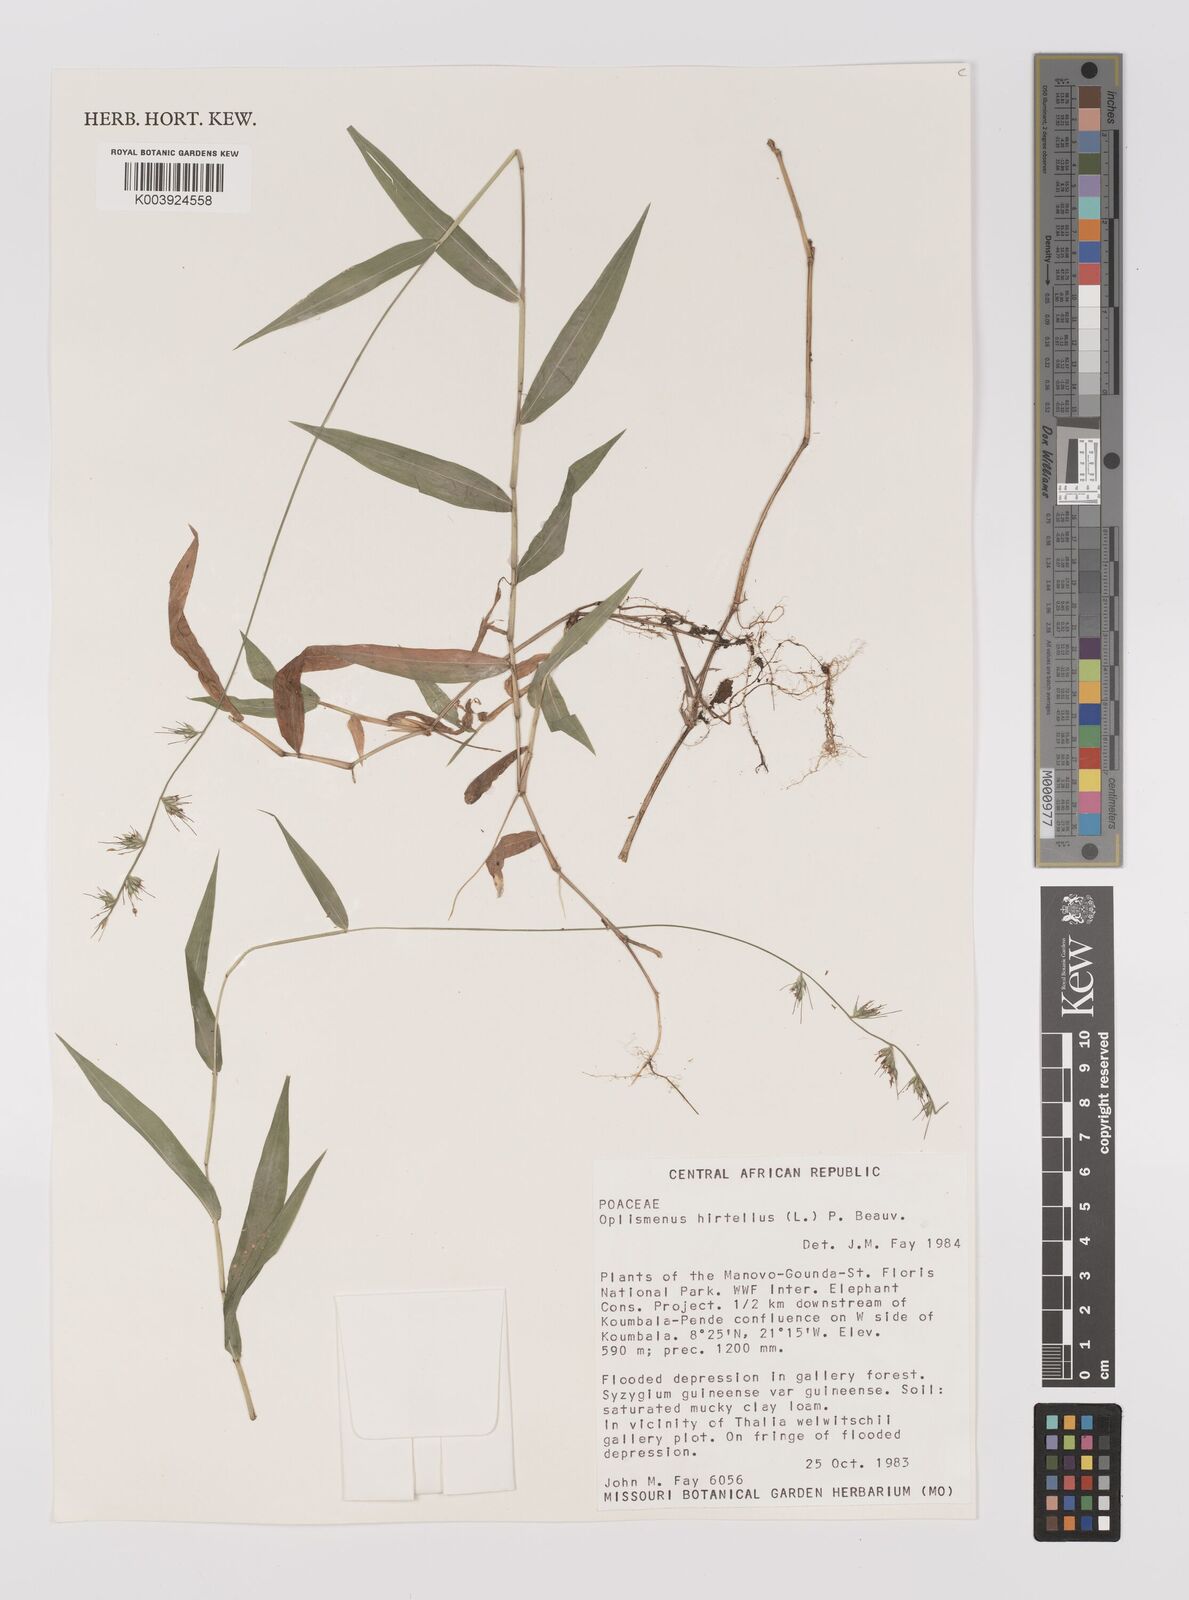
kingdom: Plantae
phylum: Tracheophyta
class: Liliopsida
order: Poales
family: Poaceae
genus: Oplismenus
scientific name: Oplismenus hirtellus
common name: Basketgrass
